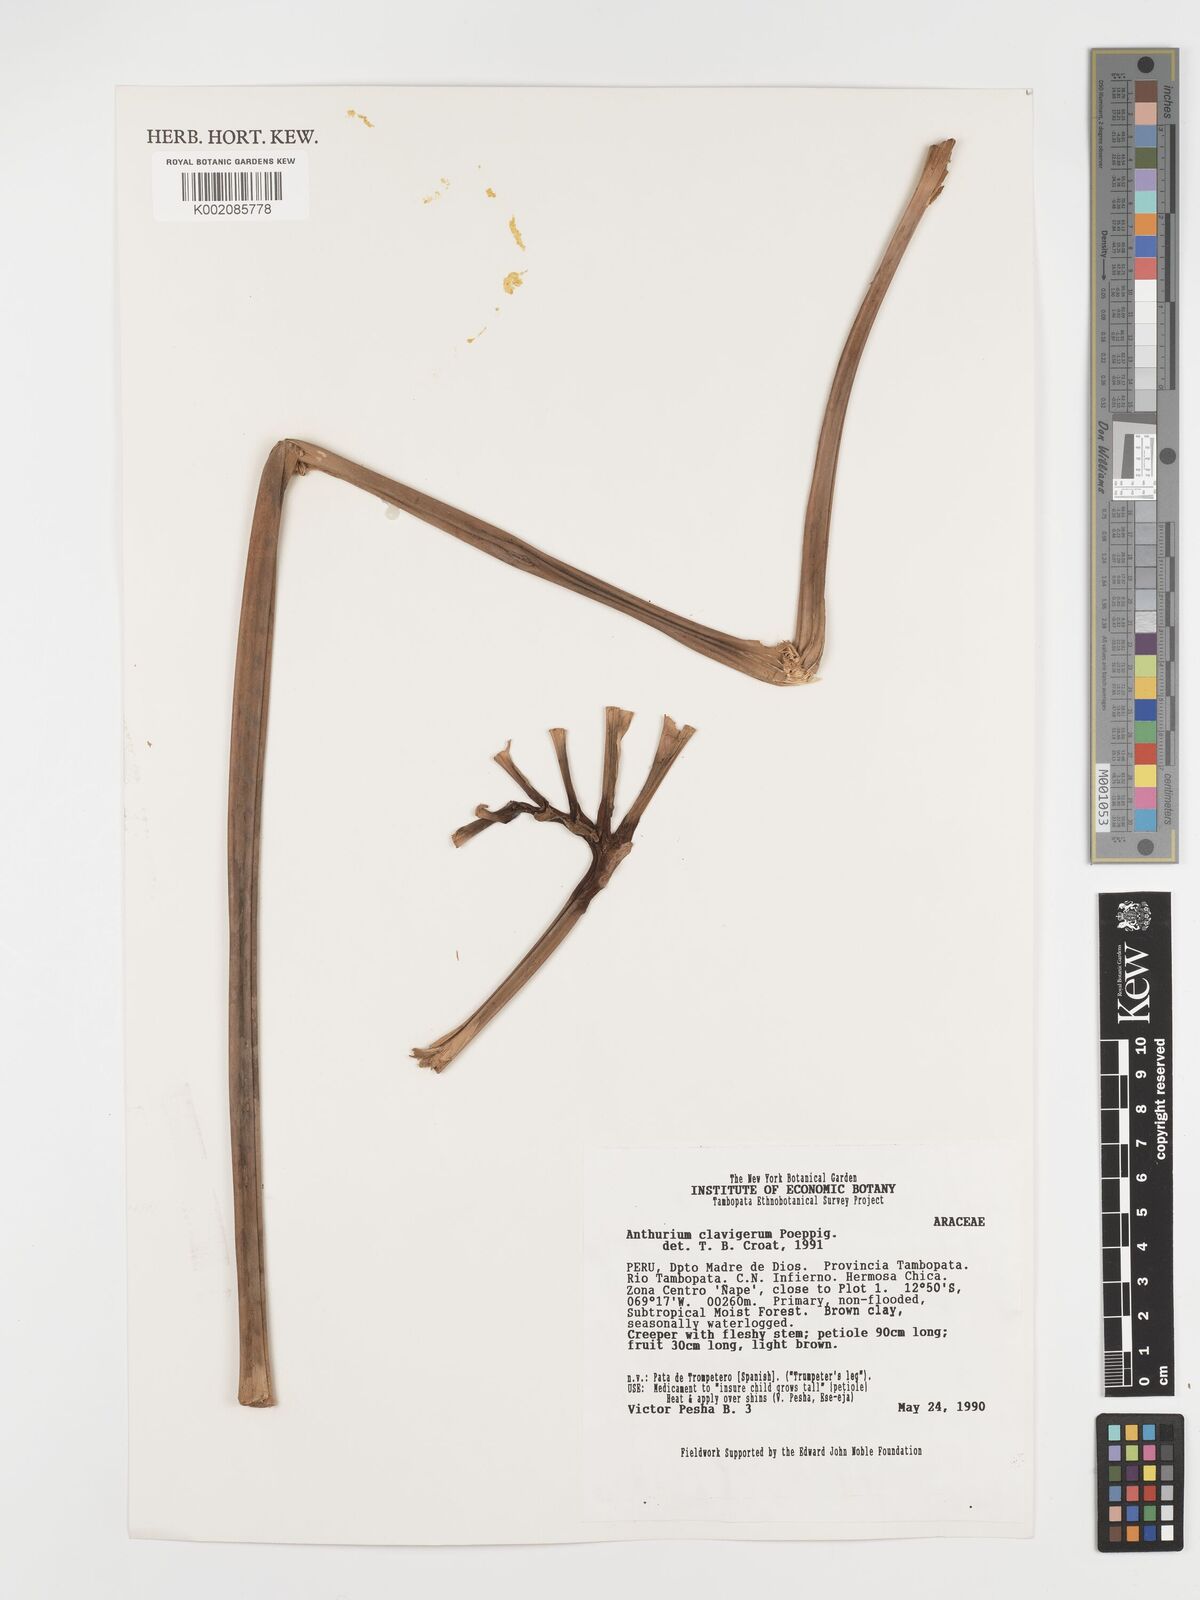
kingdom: Plantae
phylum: Tracheophyta
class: Liliopsida
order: Alismatales
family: Araceae
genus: Anthurium
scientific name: Anthurium clavigerum
